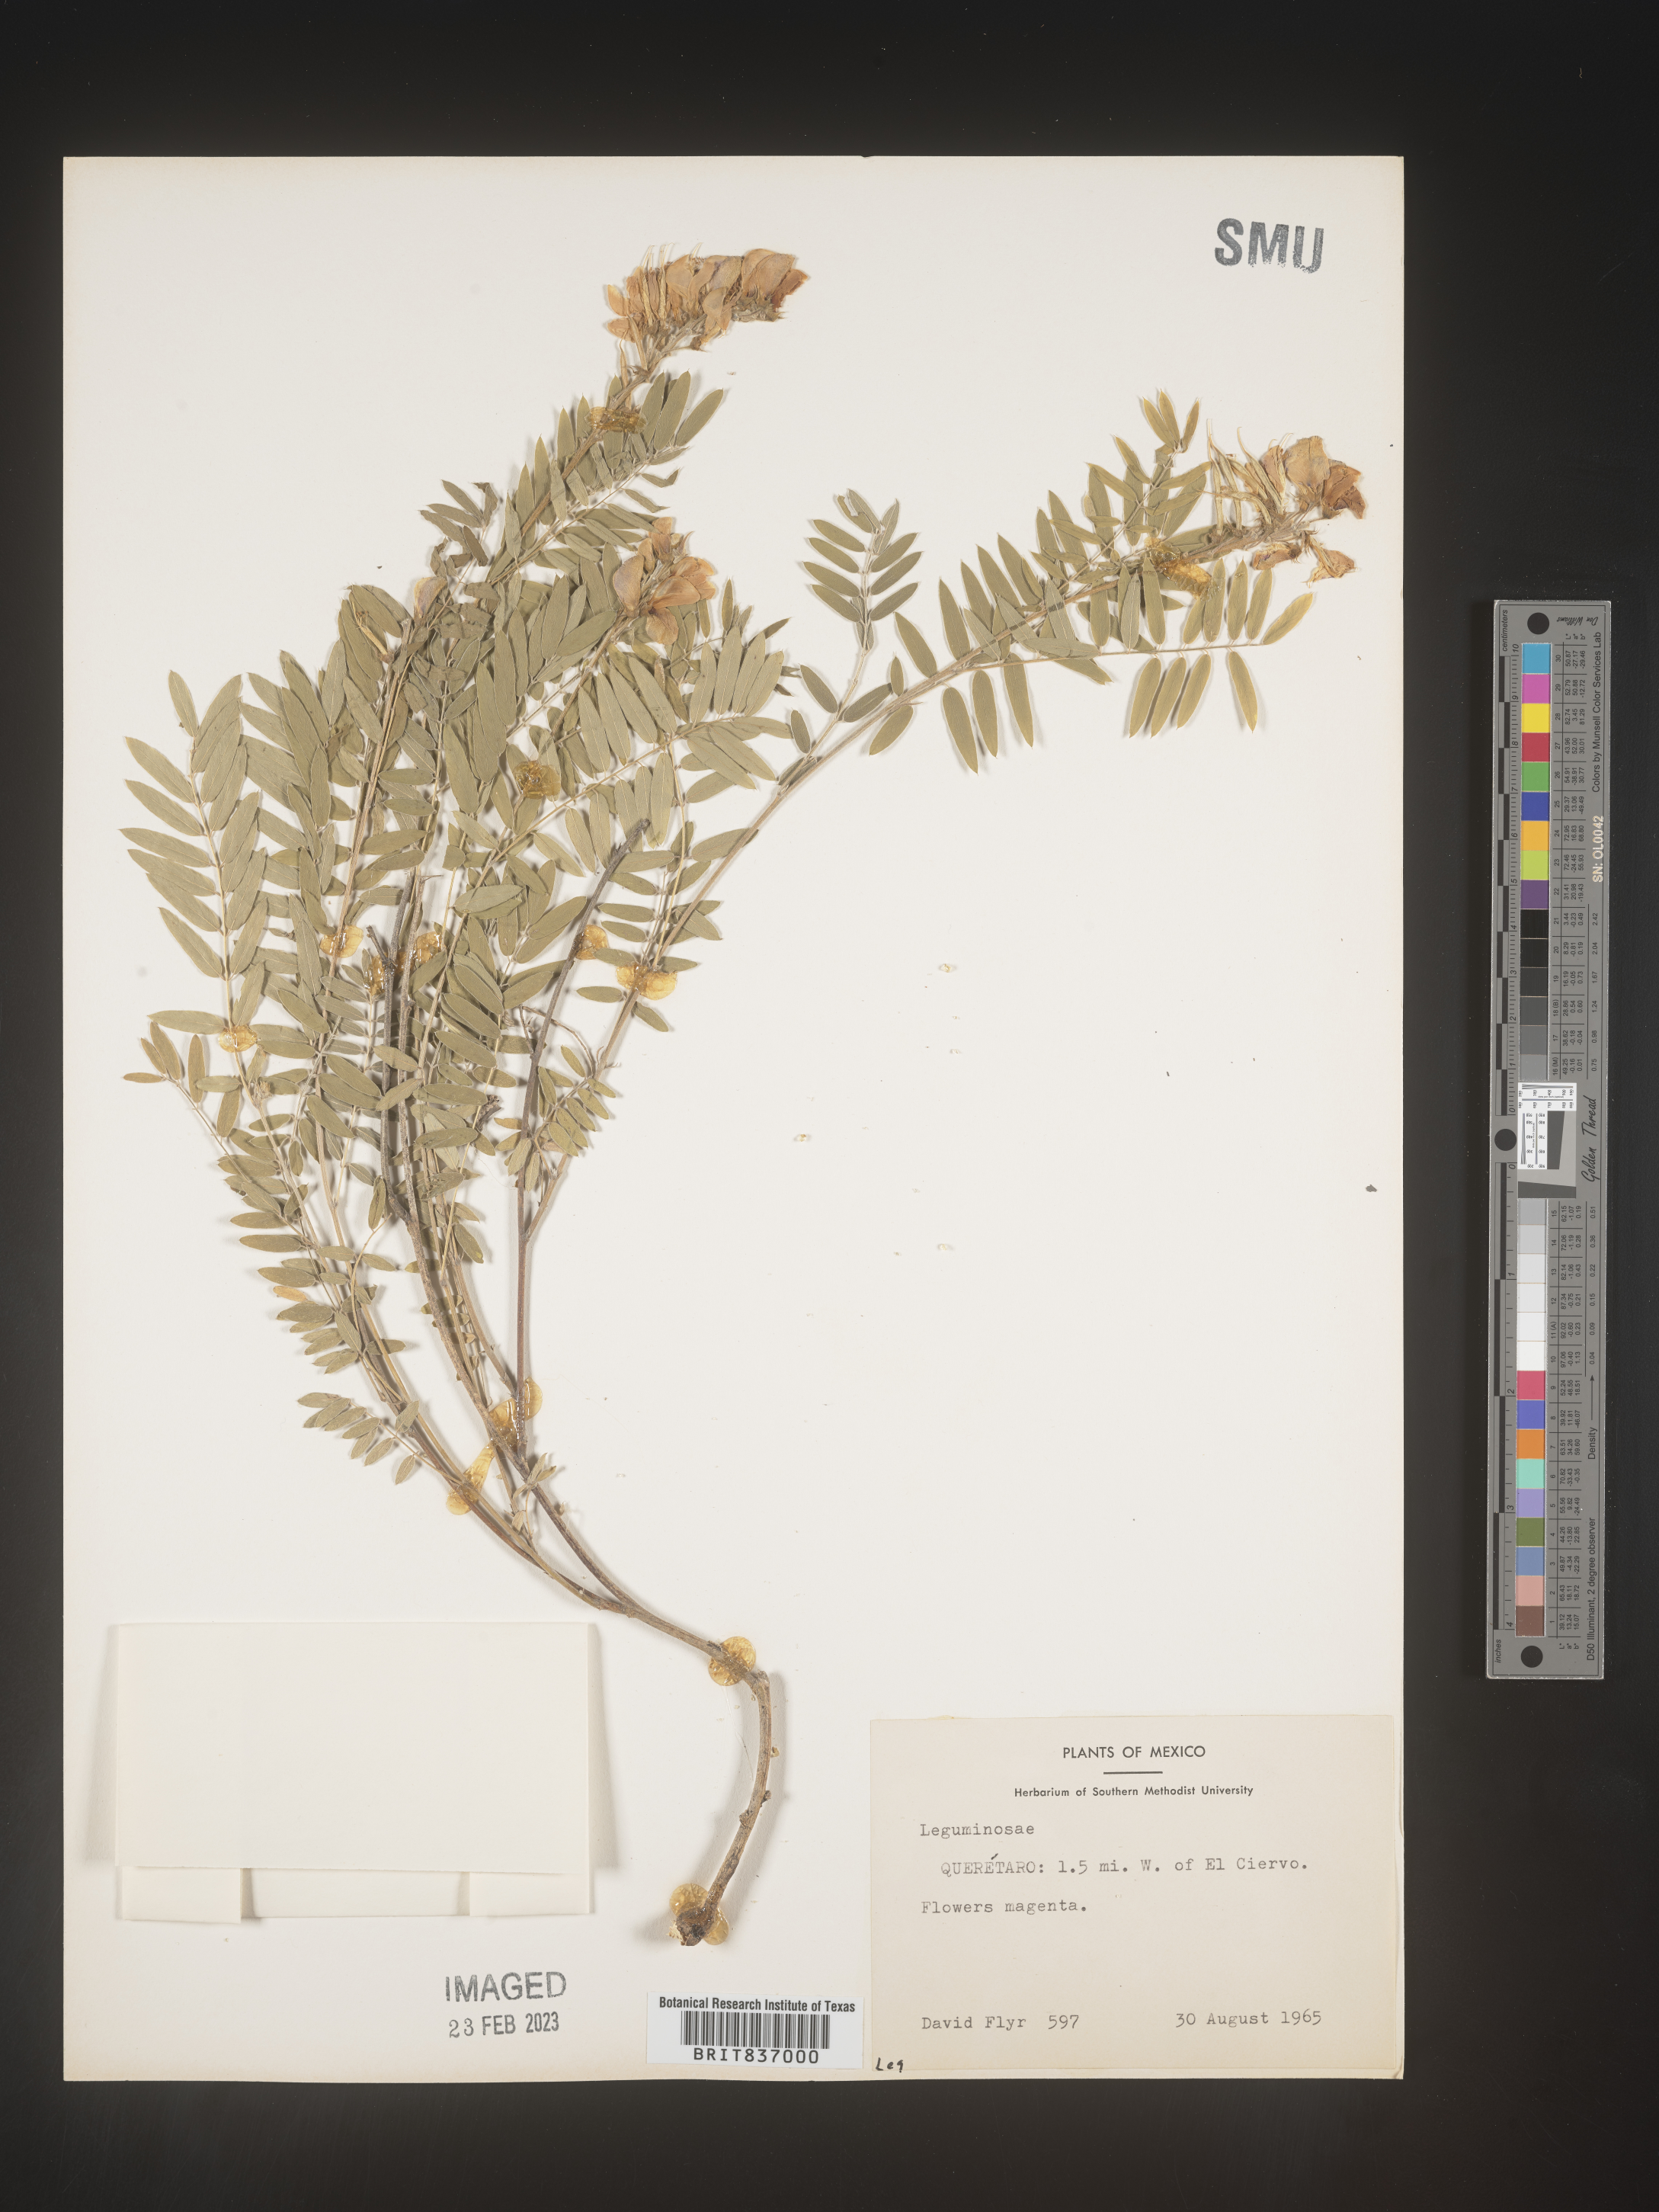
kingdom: Plantae
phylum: Tracheophyta
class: Magnoliopsida
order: Fabales
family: Fabaceae
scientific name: Fabaceae
